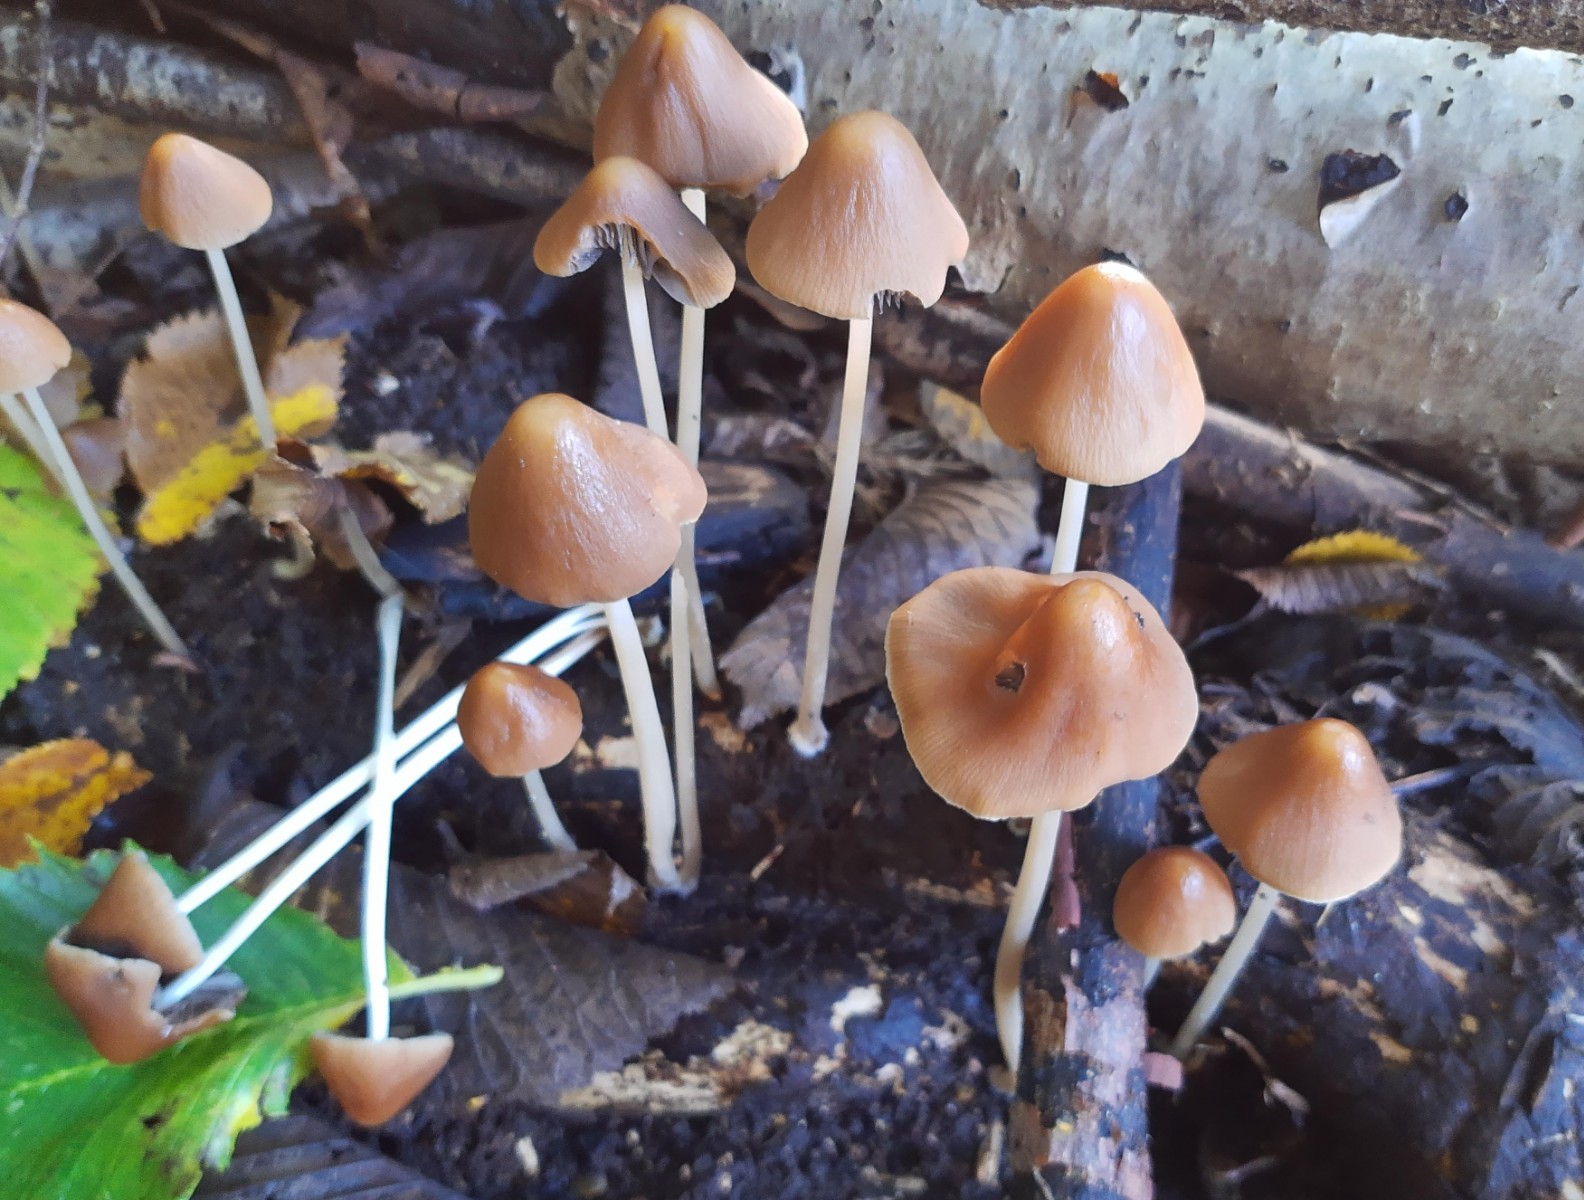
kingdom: Fungi
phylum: Basidiomycota
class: Agaricomycetes
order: Agaricales
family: Psathyrellaceae
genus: Parasola
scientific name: Parasola conopilea
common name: kegle-hjulhat
